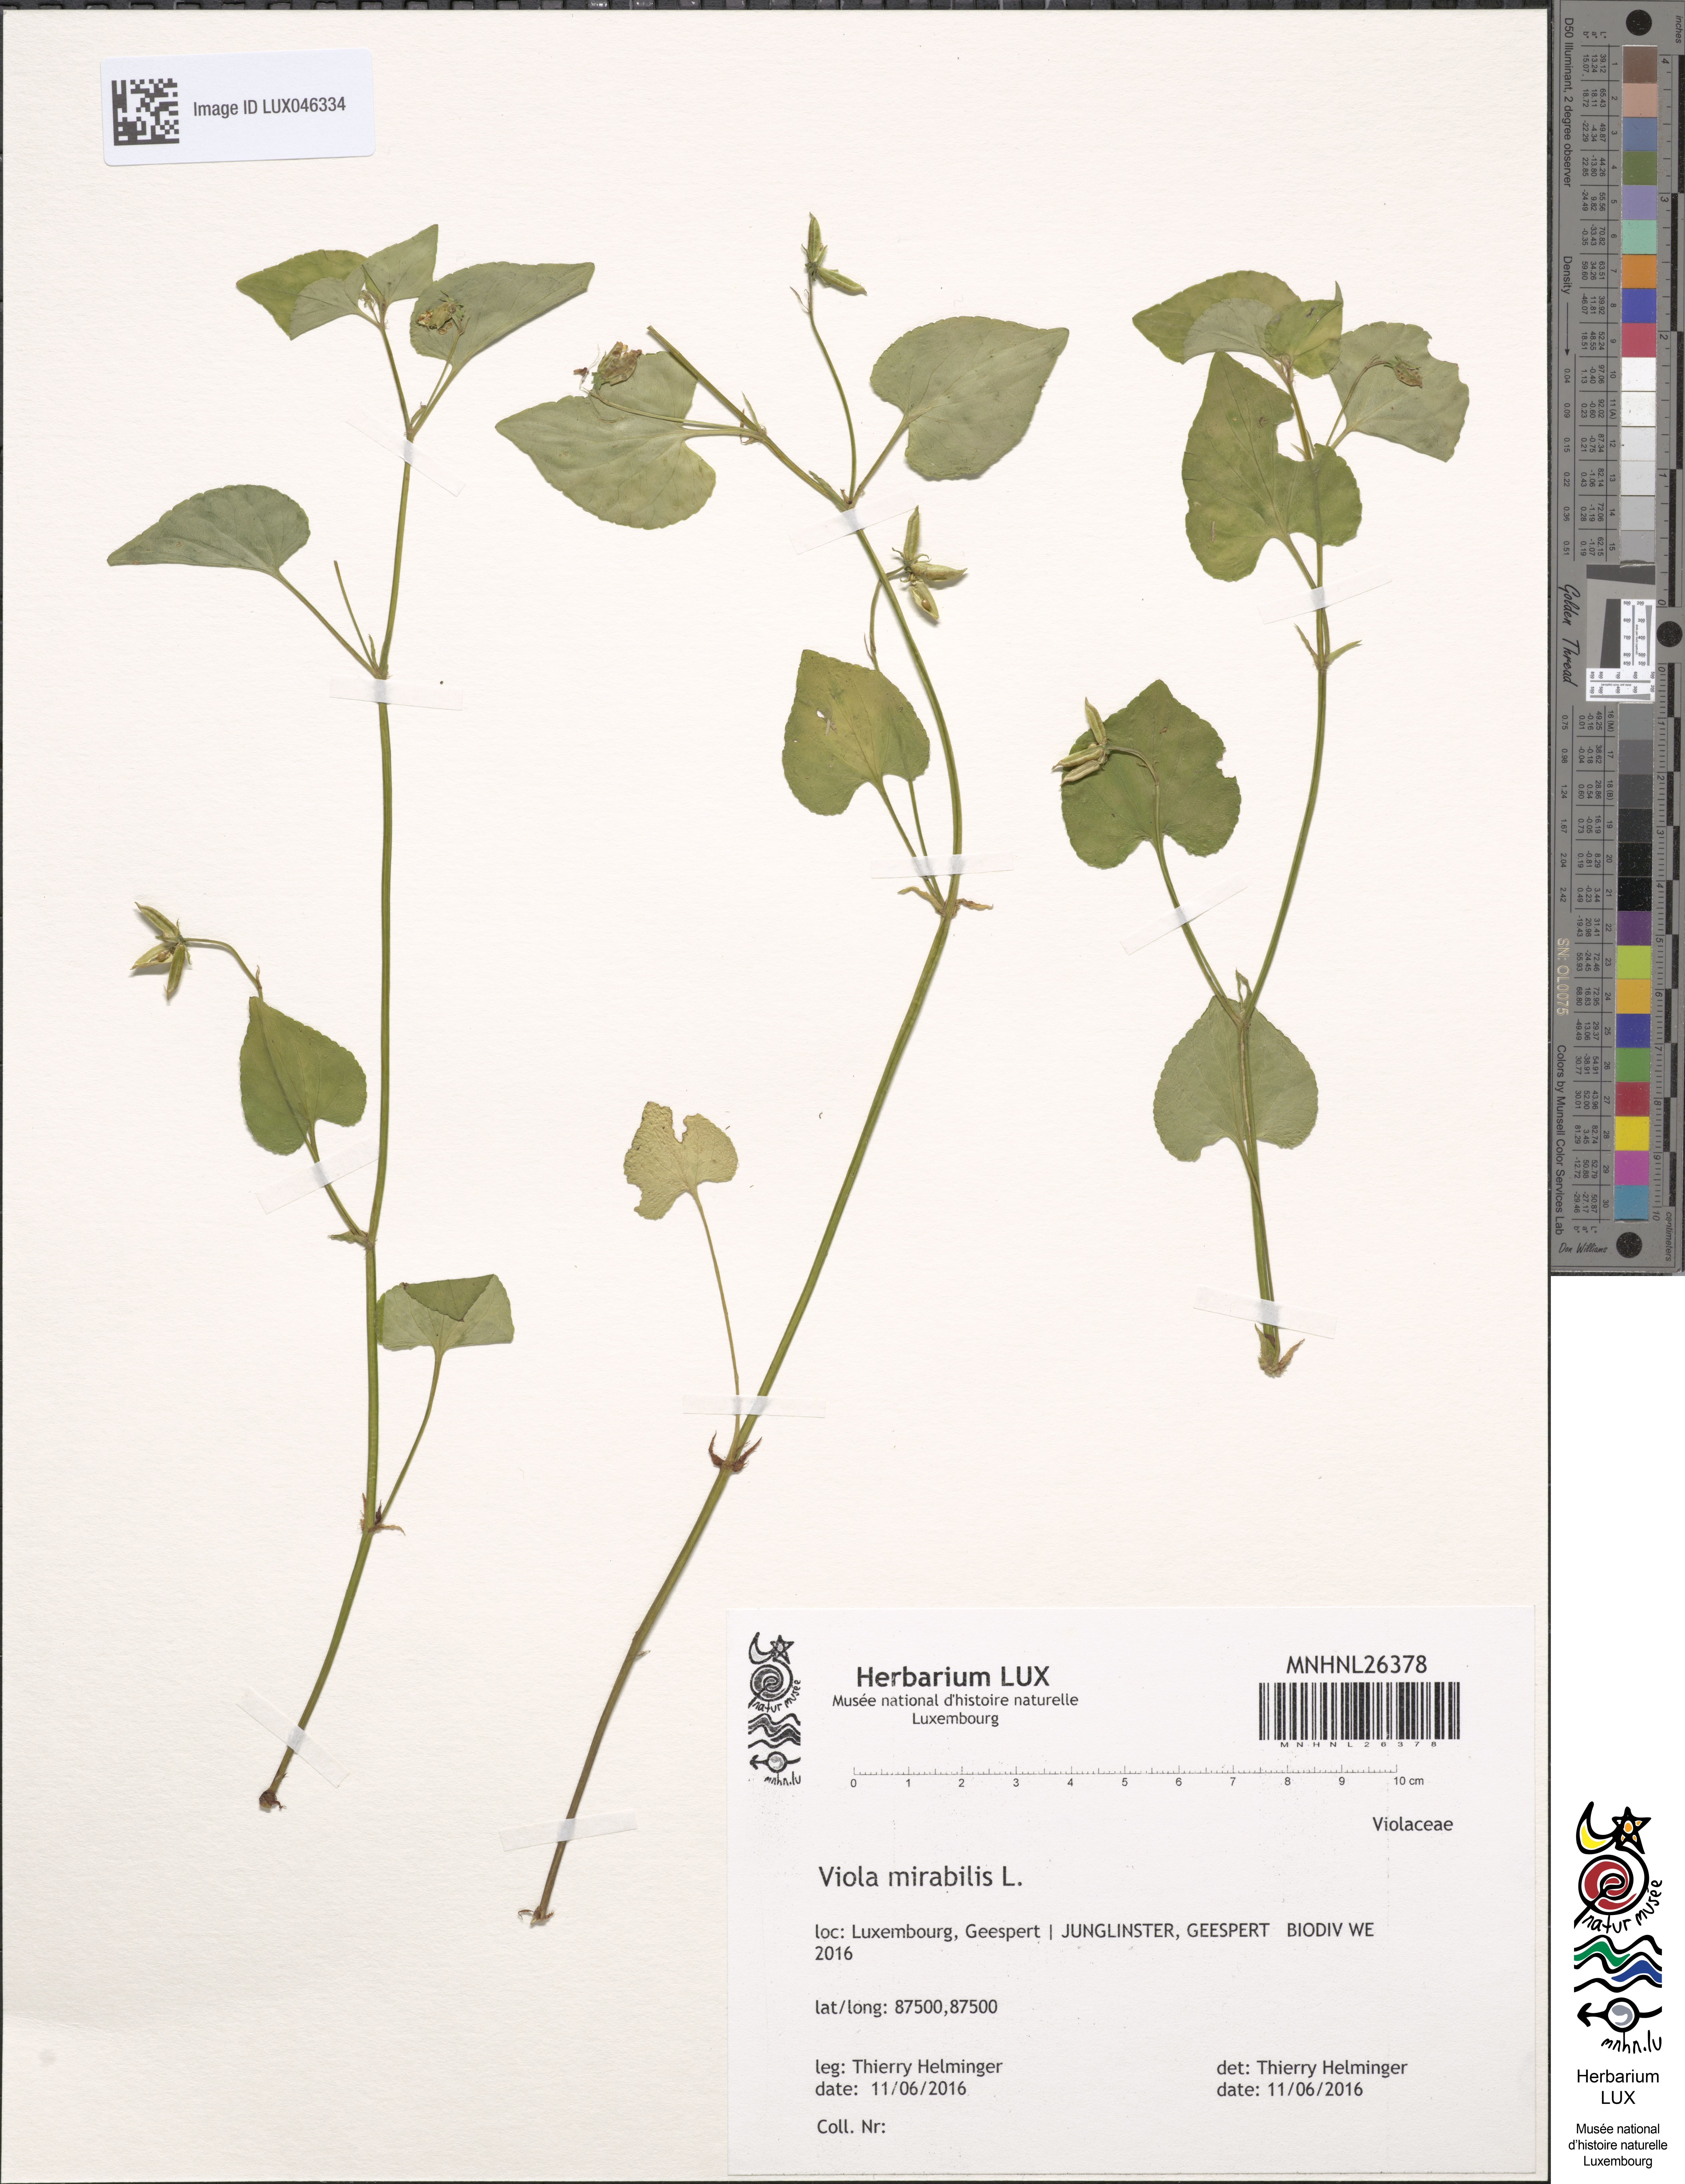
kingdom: Plantae
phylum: Tracheophyta
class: Magnoliopsida
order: Malpighiales
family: Violaceae
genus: Viola
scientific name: Viola mirabilis
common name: Wonder violet
